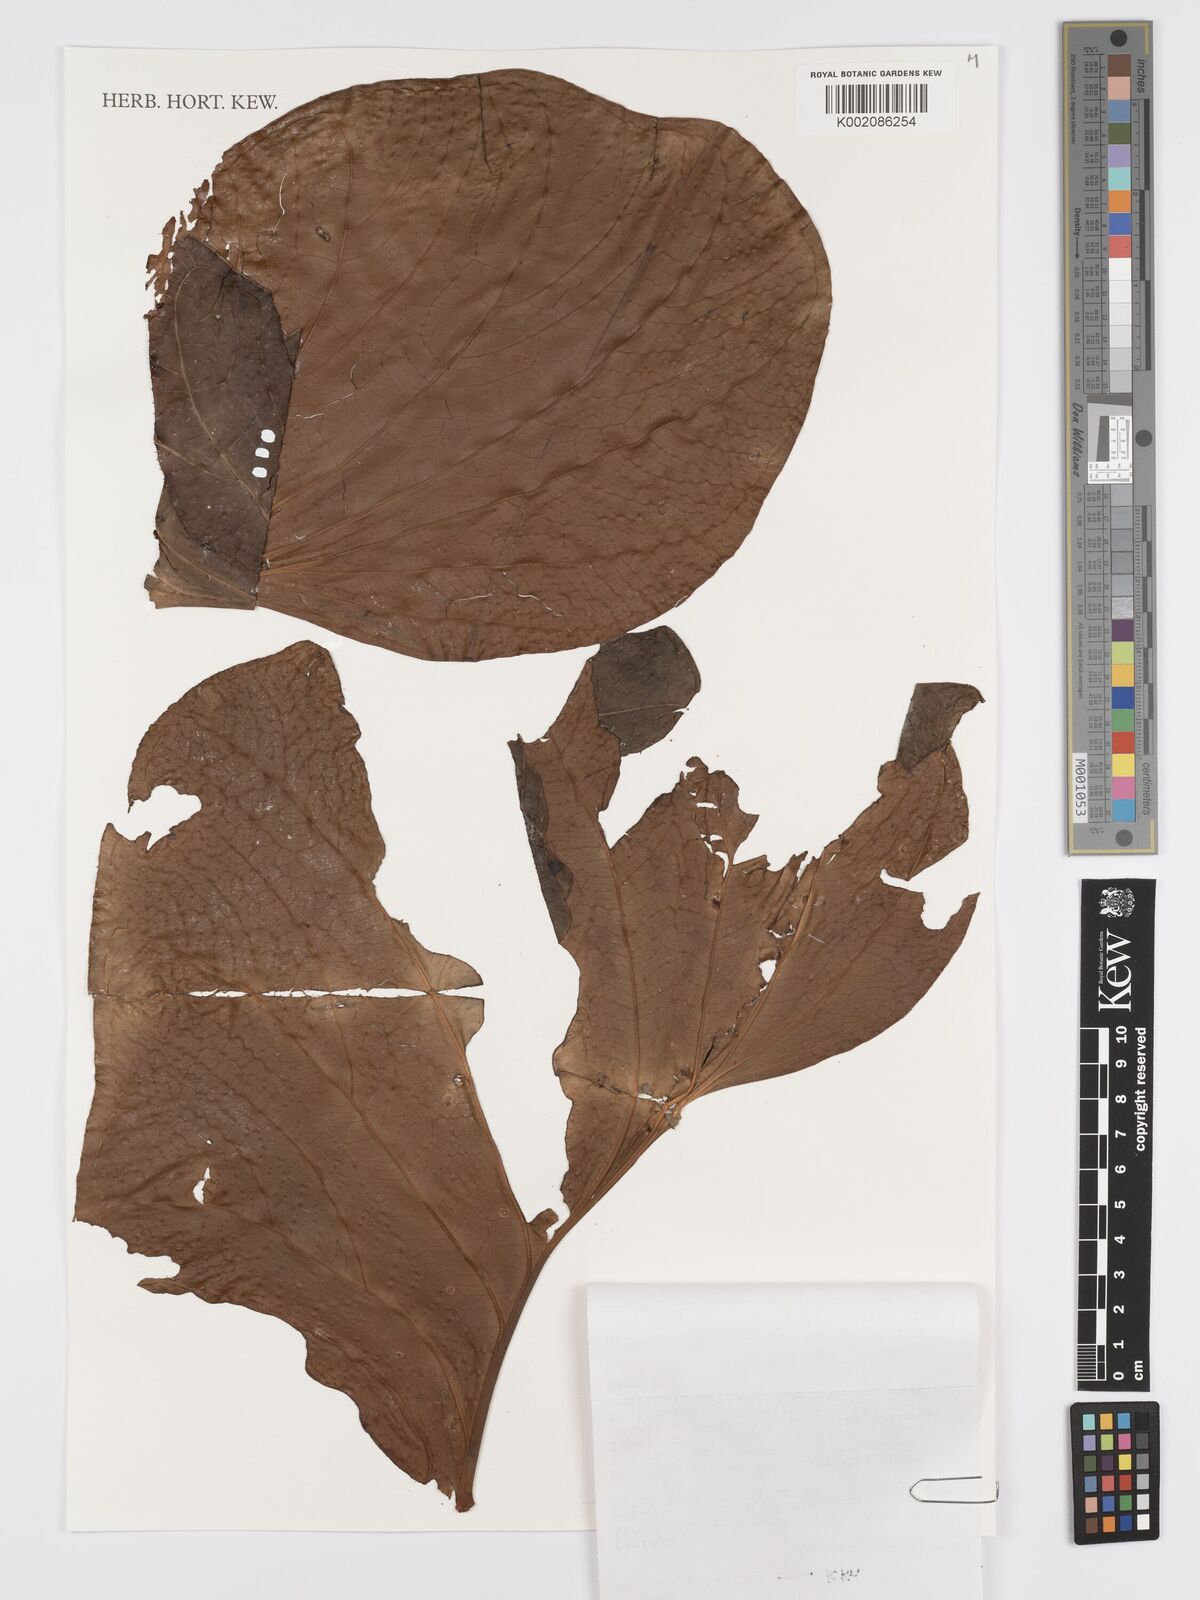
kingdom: Plantae
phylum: Tracheophyta
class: Liliopsida
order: Alismatales
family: Araceae
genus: Anthurium
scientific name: Anthurium herthae
